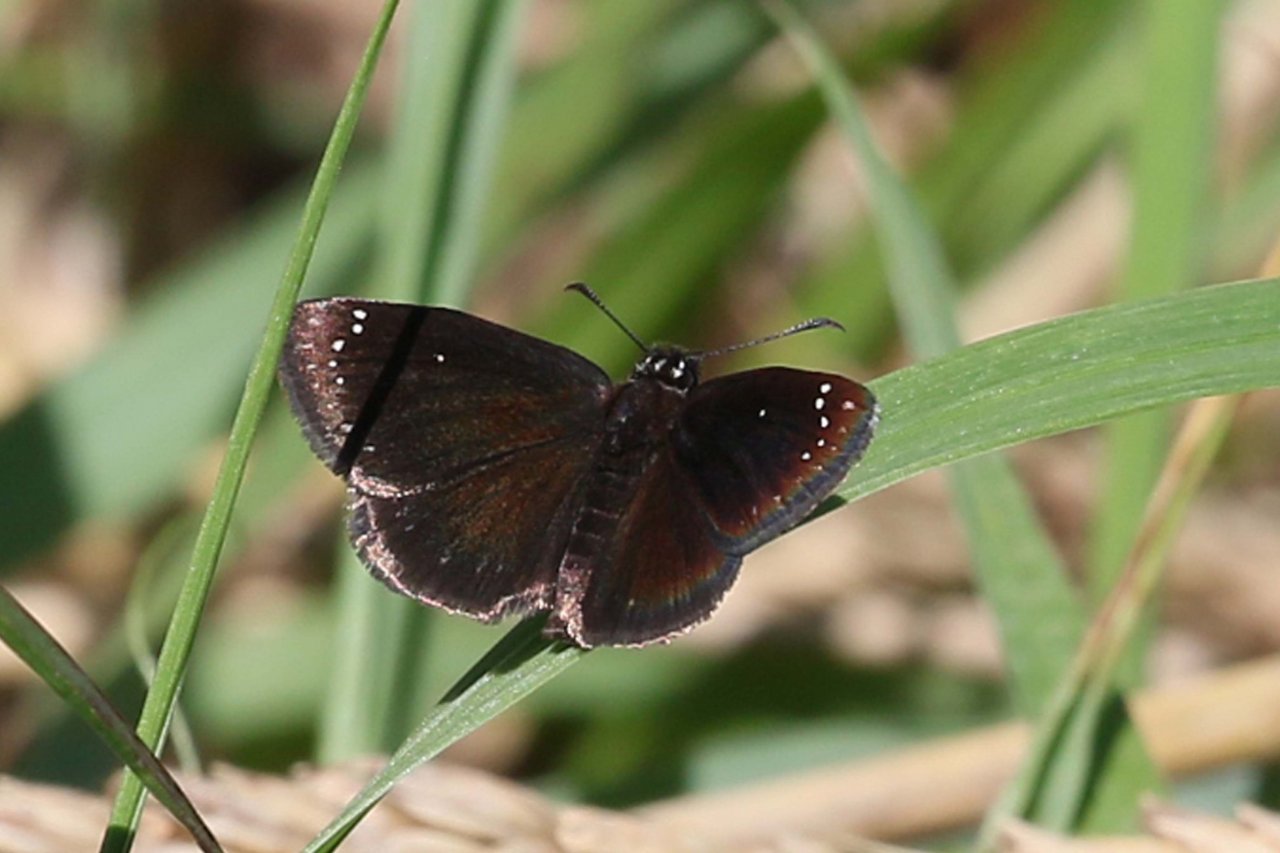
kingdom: Animalia
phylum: Arthropoda
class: Insecta
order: Lepidoptera
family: Hesperiidae
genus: Pholisora
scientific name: Pholisora catullus
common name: Common Sootywing
